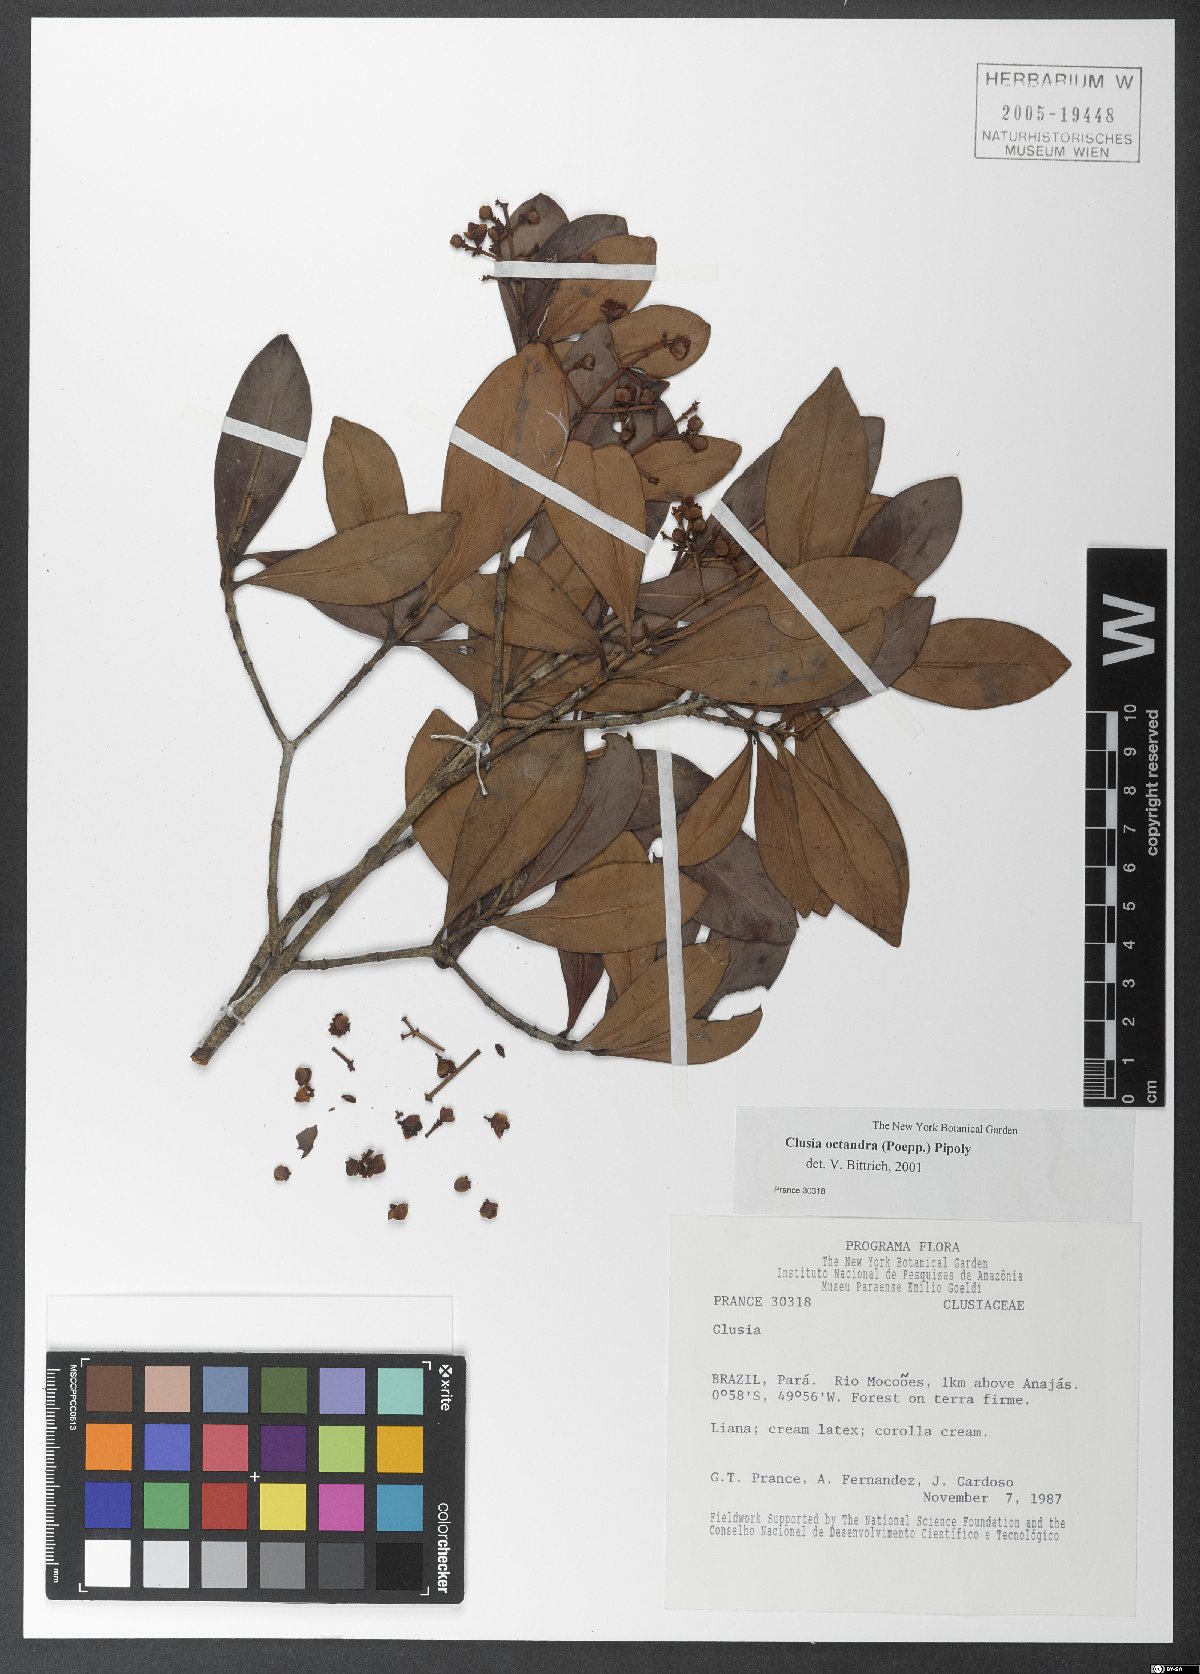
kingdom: Plantae
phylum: Tracheophyta
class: Magnoliopsida
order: Malpighiales
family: Clusiaceae
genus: Clusia
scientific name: Clusia octandra
